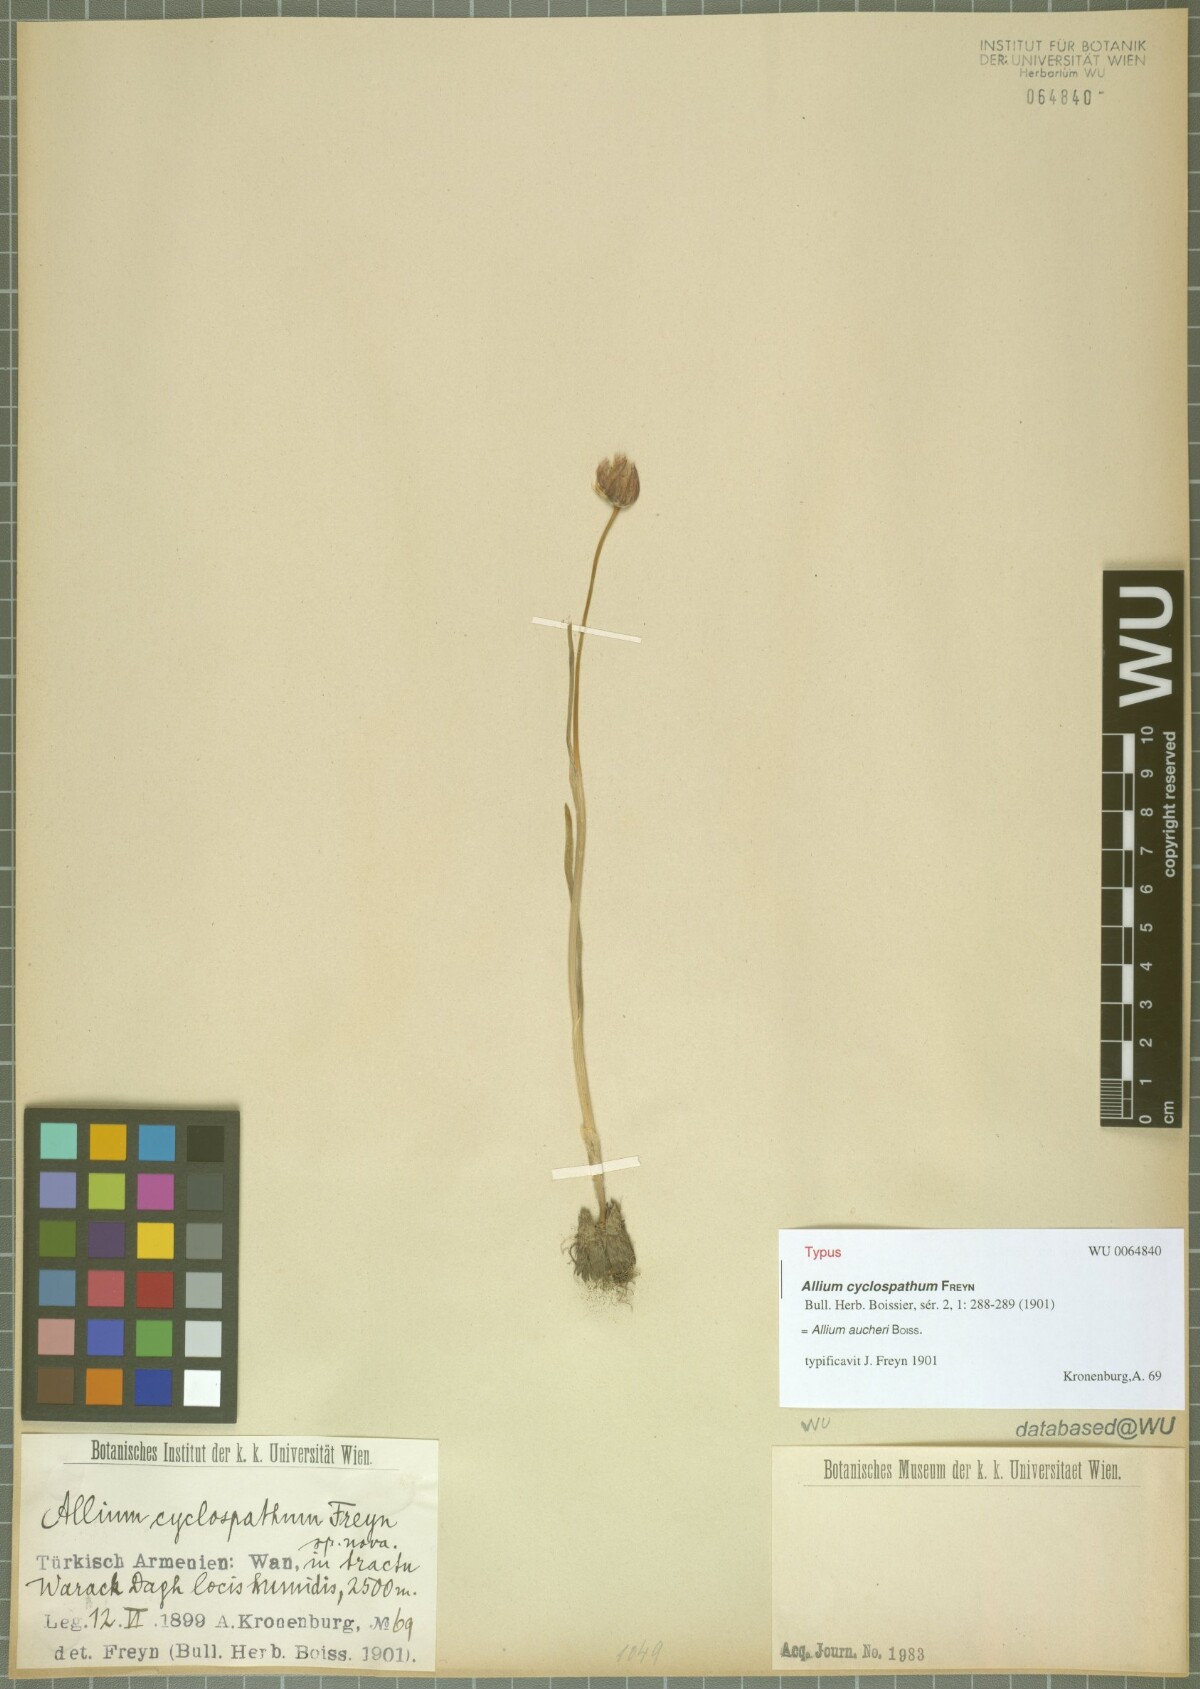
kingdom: Plantae
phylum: Tracheophyta
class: Liliopsida
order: Asparagales
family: Amaryllidaceae
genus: Allium
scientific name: Allium aucheri
